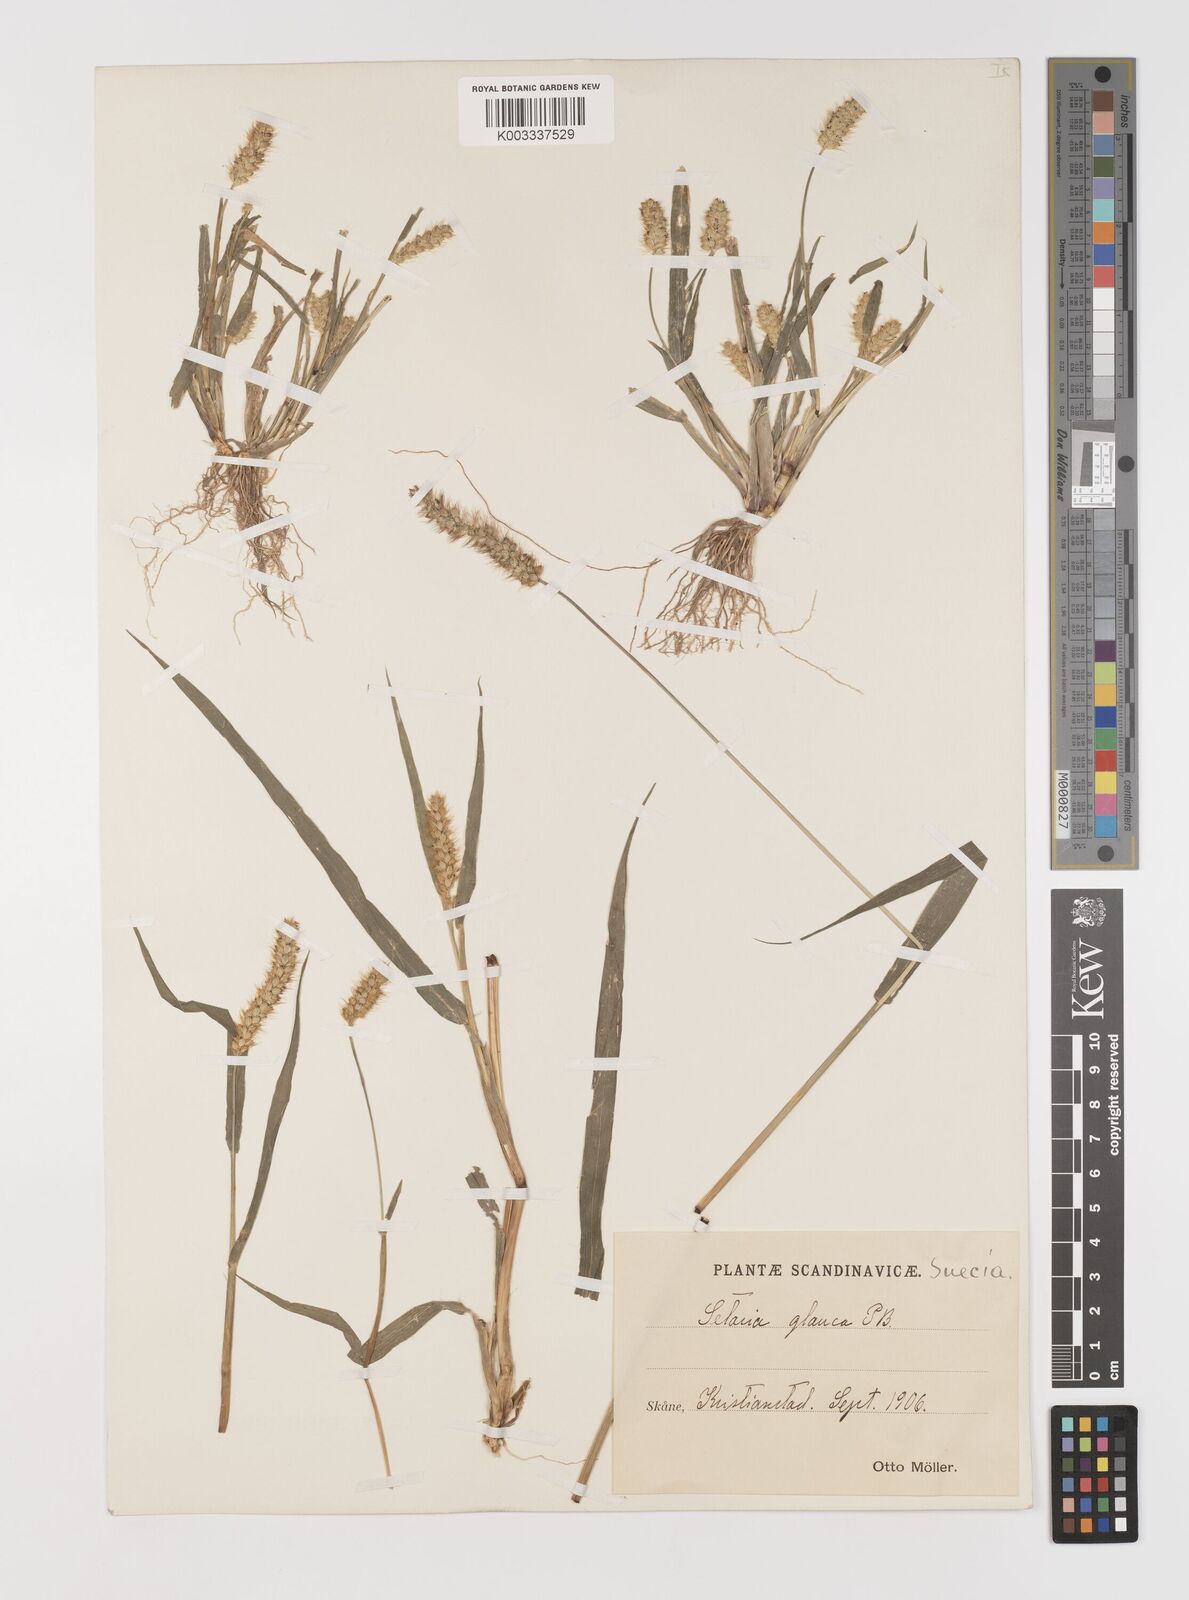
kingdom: Plantae
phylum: Tracheophyta
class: Liliopsida
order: Poales
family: Poaceae
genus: Setaria
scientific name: Setaria pumila
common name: Yellow bristle-grass
